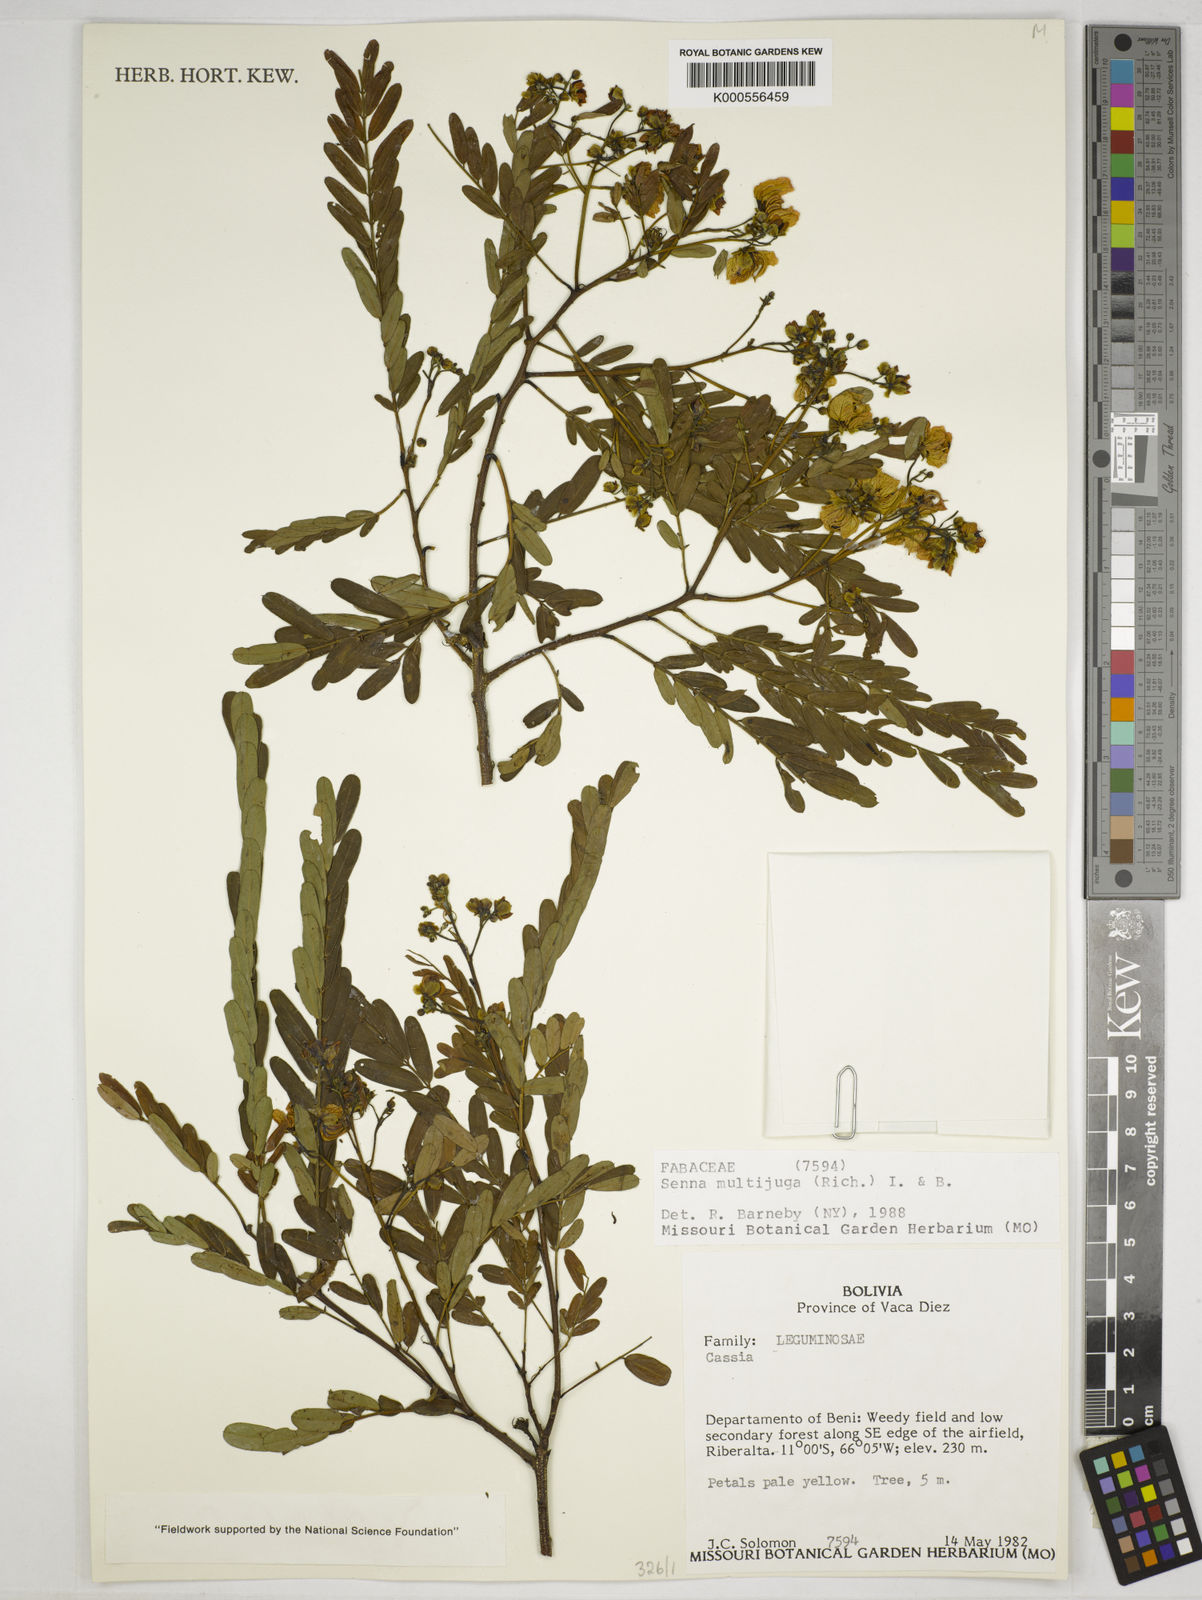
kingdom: Plantae
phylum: Tracheophyta
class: Magnoliopsida
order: Fabales
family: Fabaceae
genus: Senna
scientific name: Senna multijuga
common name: False sicklepod
